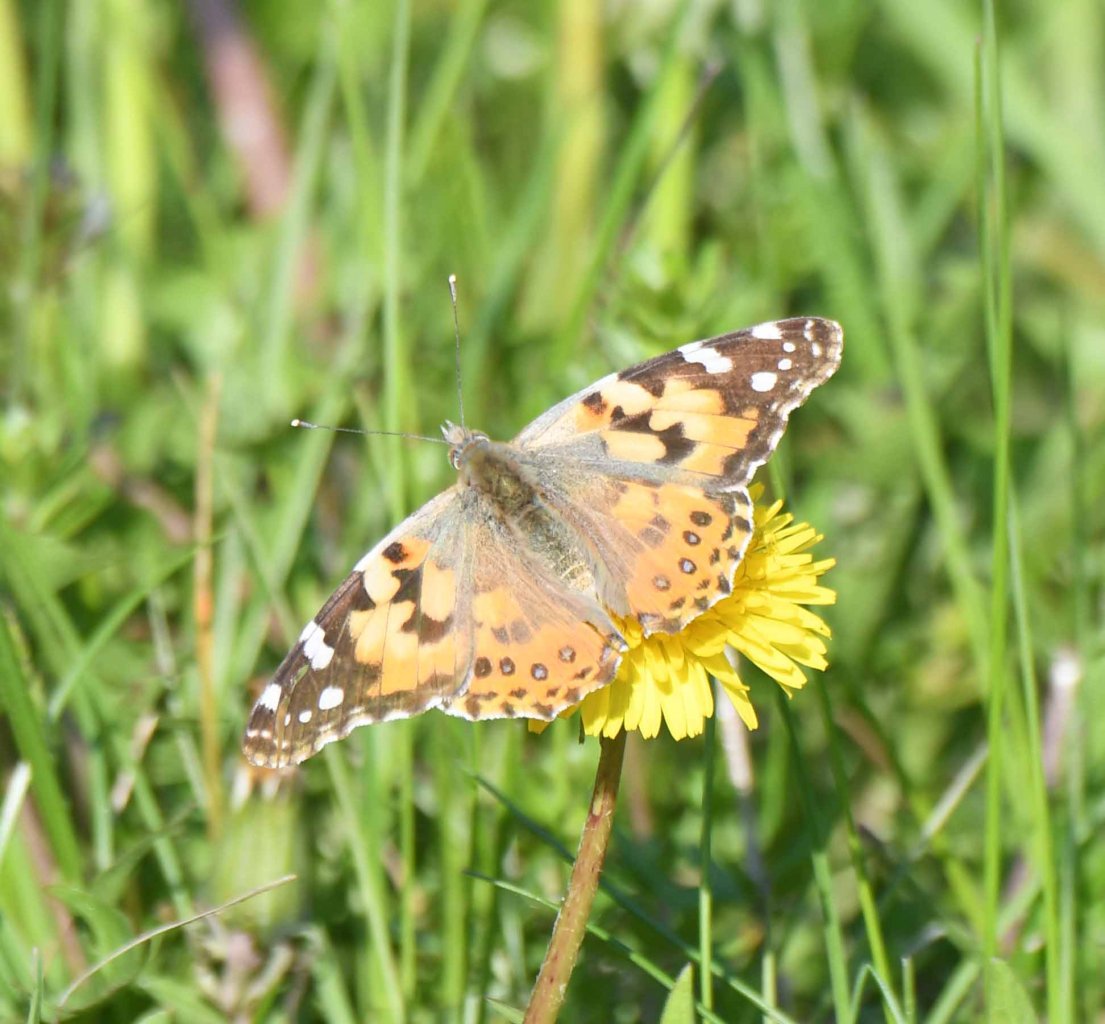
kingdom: Animalia
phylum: Arthropoda
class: Insecta
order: Lepidoptera
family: Nymphalidae
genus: Vanessa
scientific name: Vanessa virginiensis
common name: American Lady
